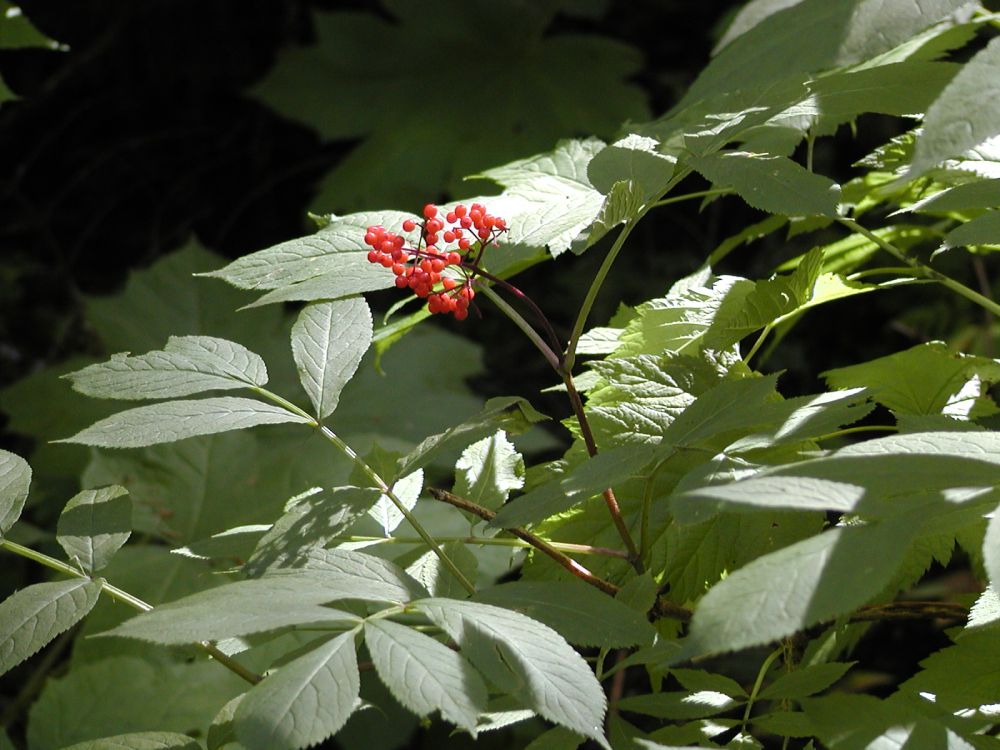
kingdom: Plantae
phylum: Tracheophyta
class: Magnoliopsida
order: Dipsacales
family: Viburnaceae
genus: Sambucus
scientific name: Sambucus racemosa
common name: Red-berried elder
